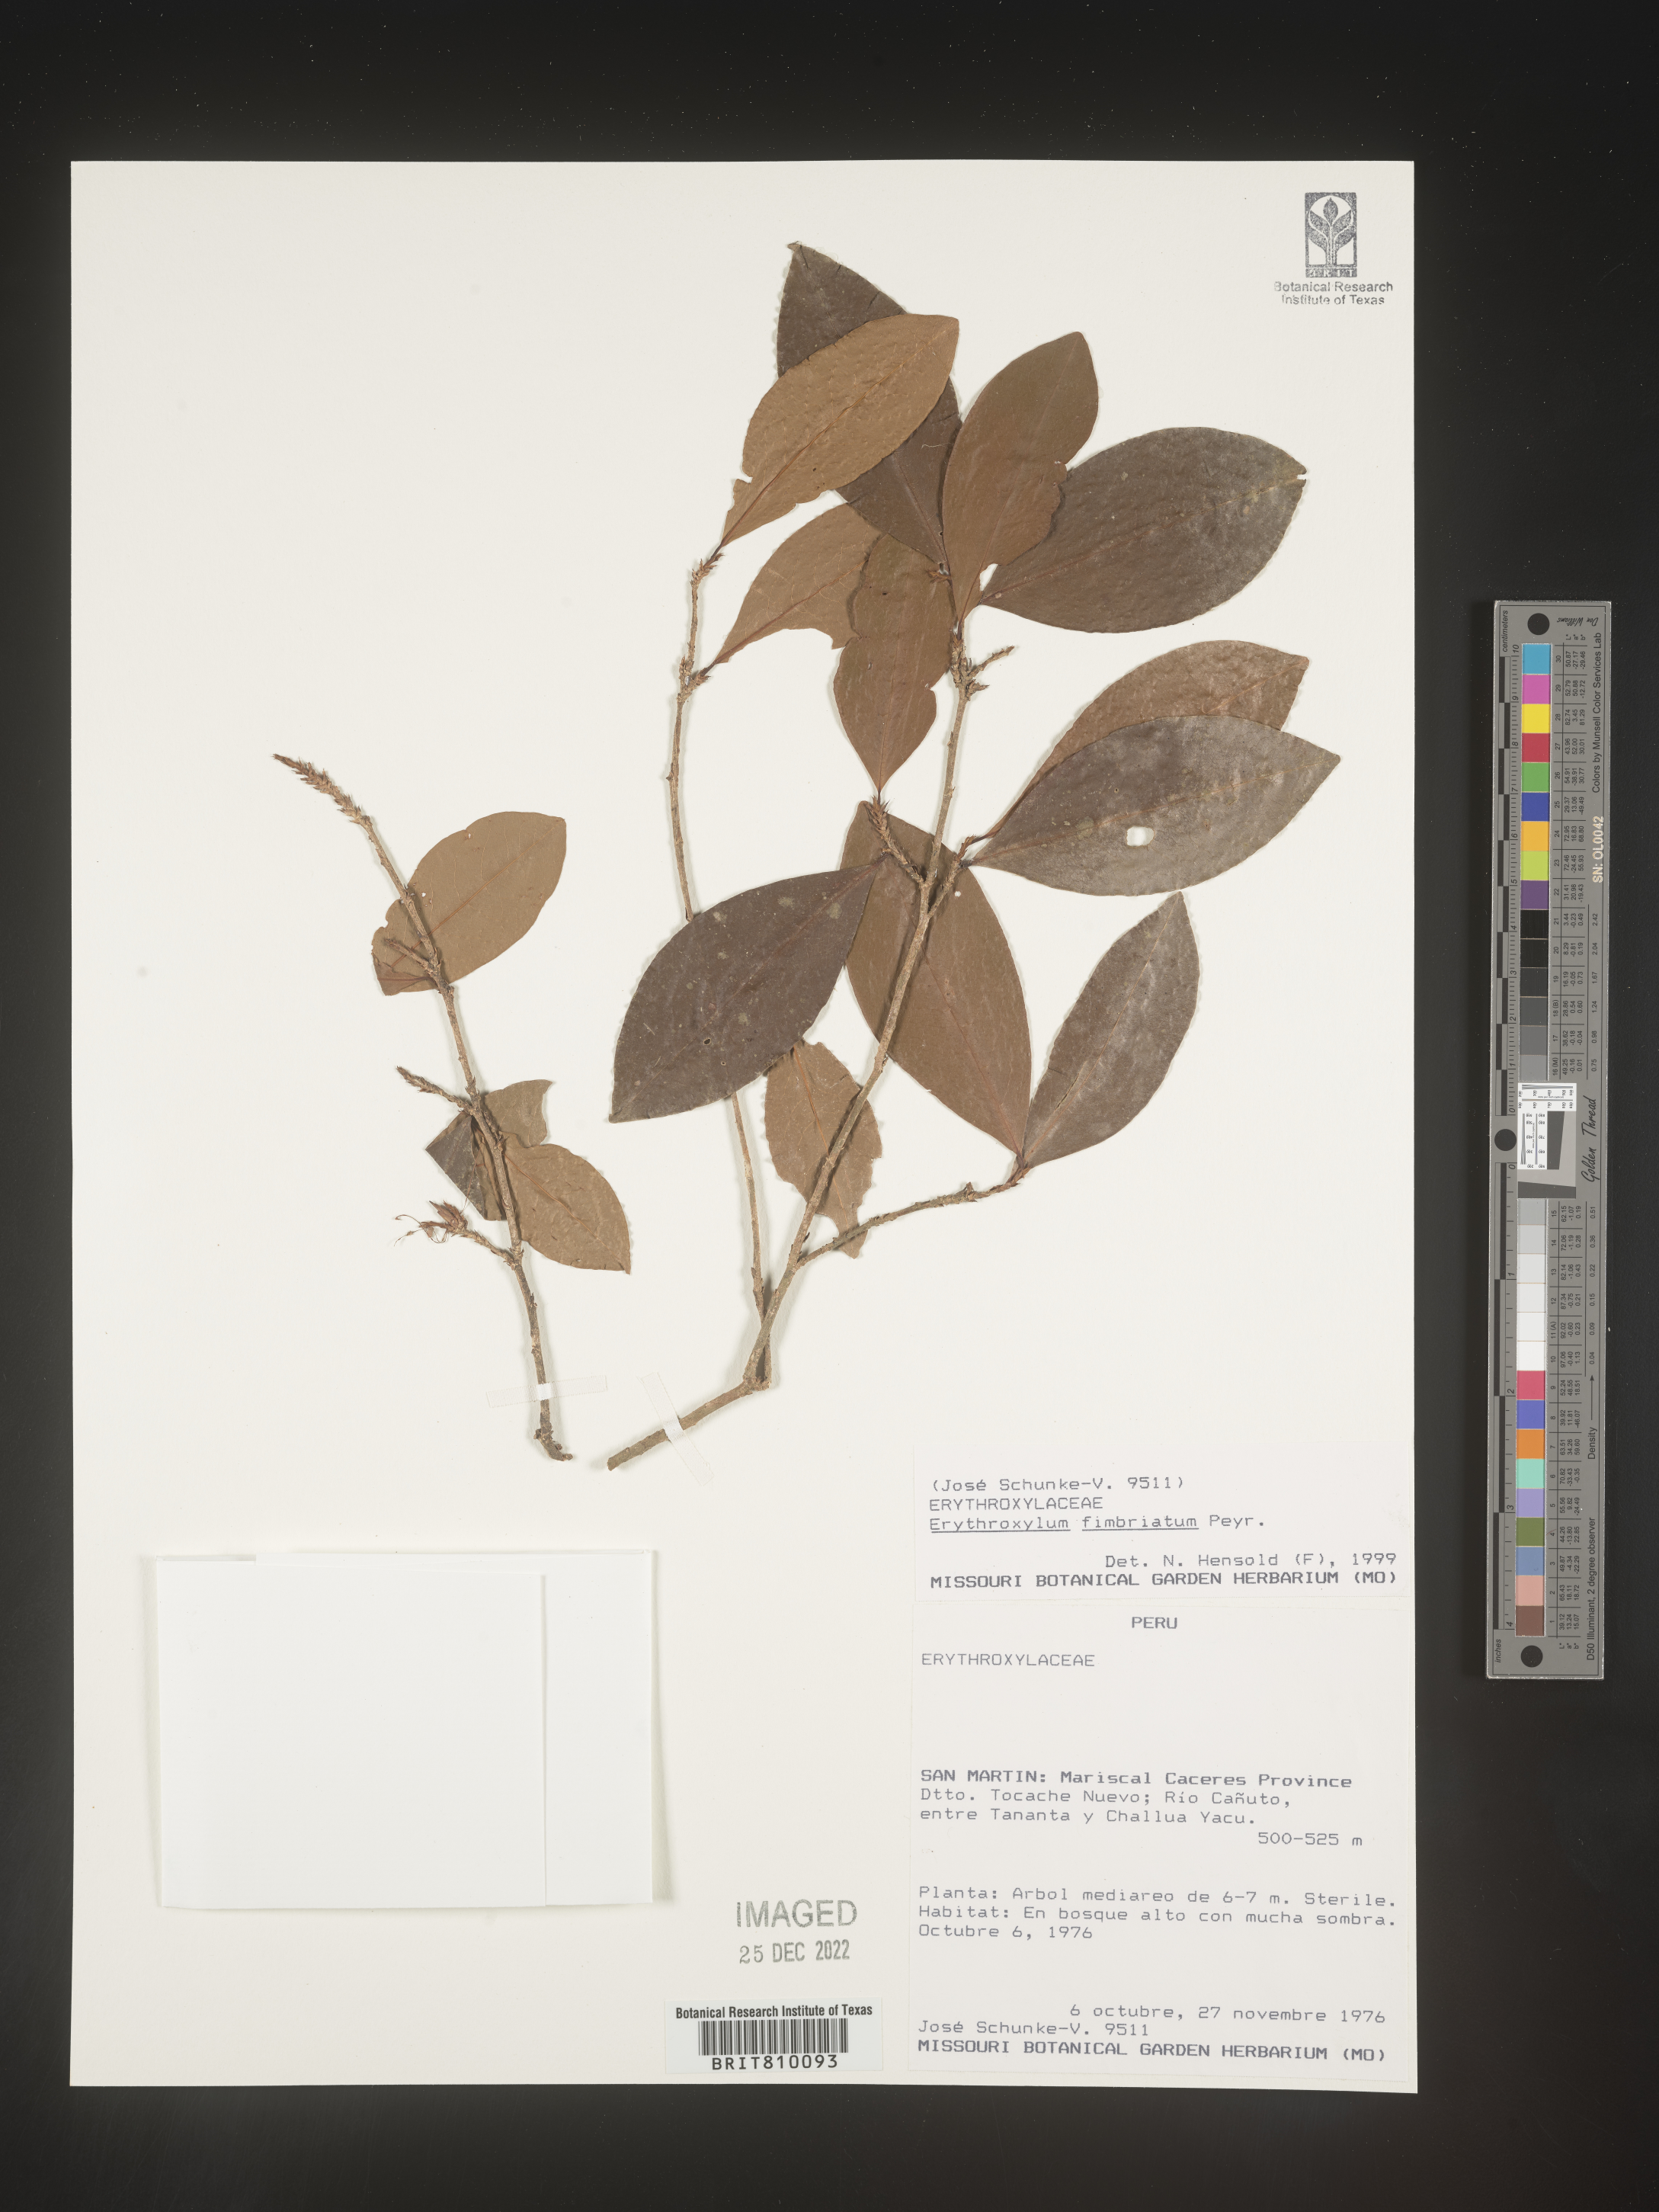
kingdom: Plantae
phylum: Tracheophyta
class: Magnoliopsida
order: Malpighiales
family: Erythroxylaceae
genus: Erythroxylum
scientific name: Erythroxylum
